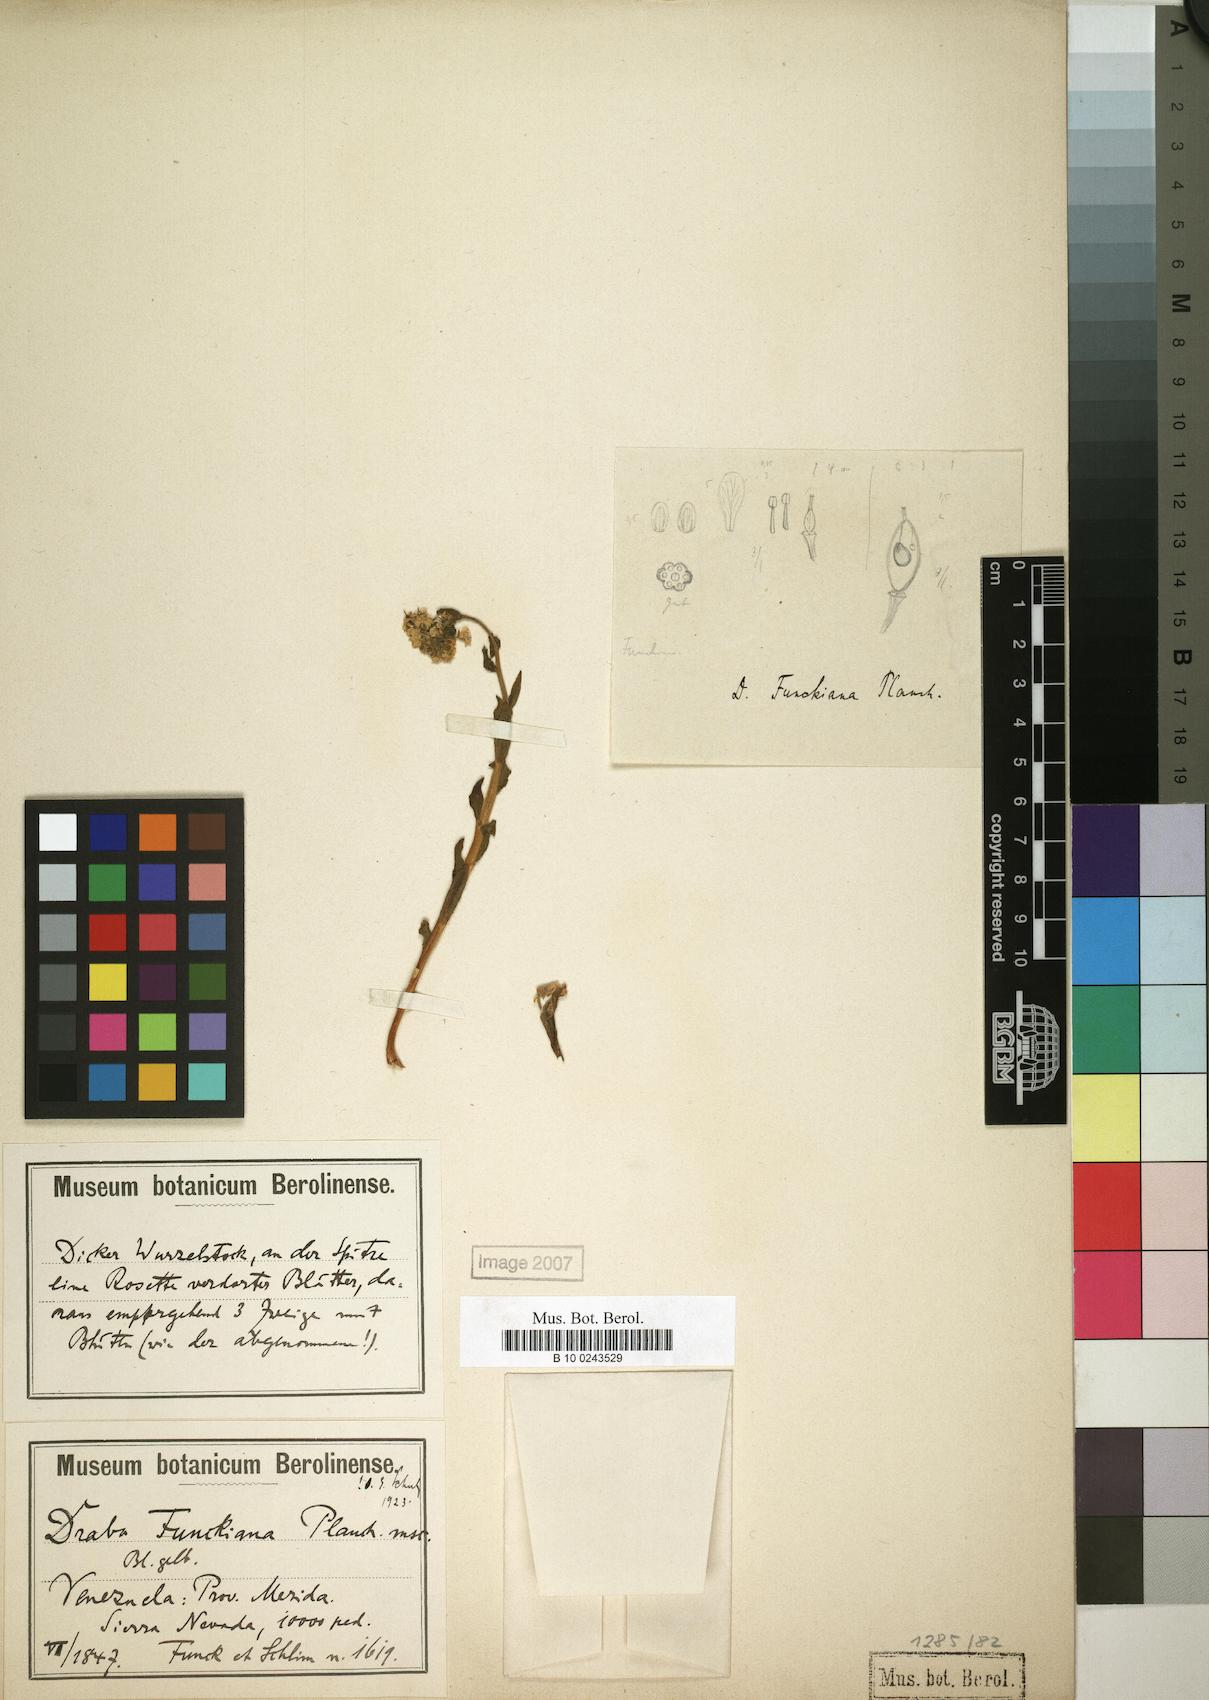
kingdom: Plantae
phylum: Tracheophyta
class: Magnoliopsida
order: Brassicales
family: Brassicaceae
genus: Draba
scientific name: Draba funiculosa
